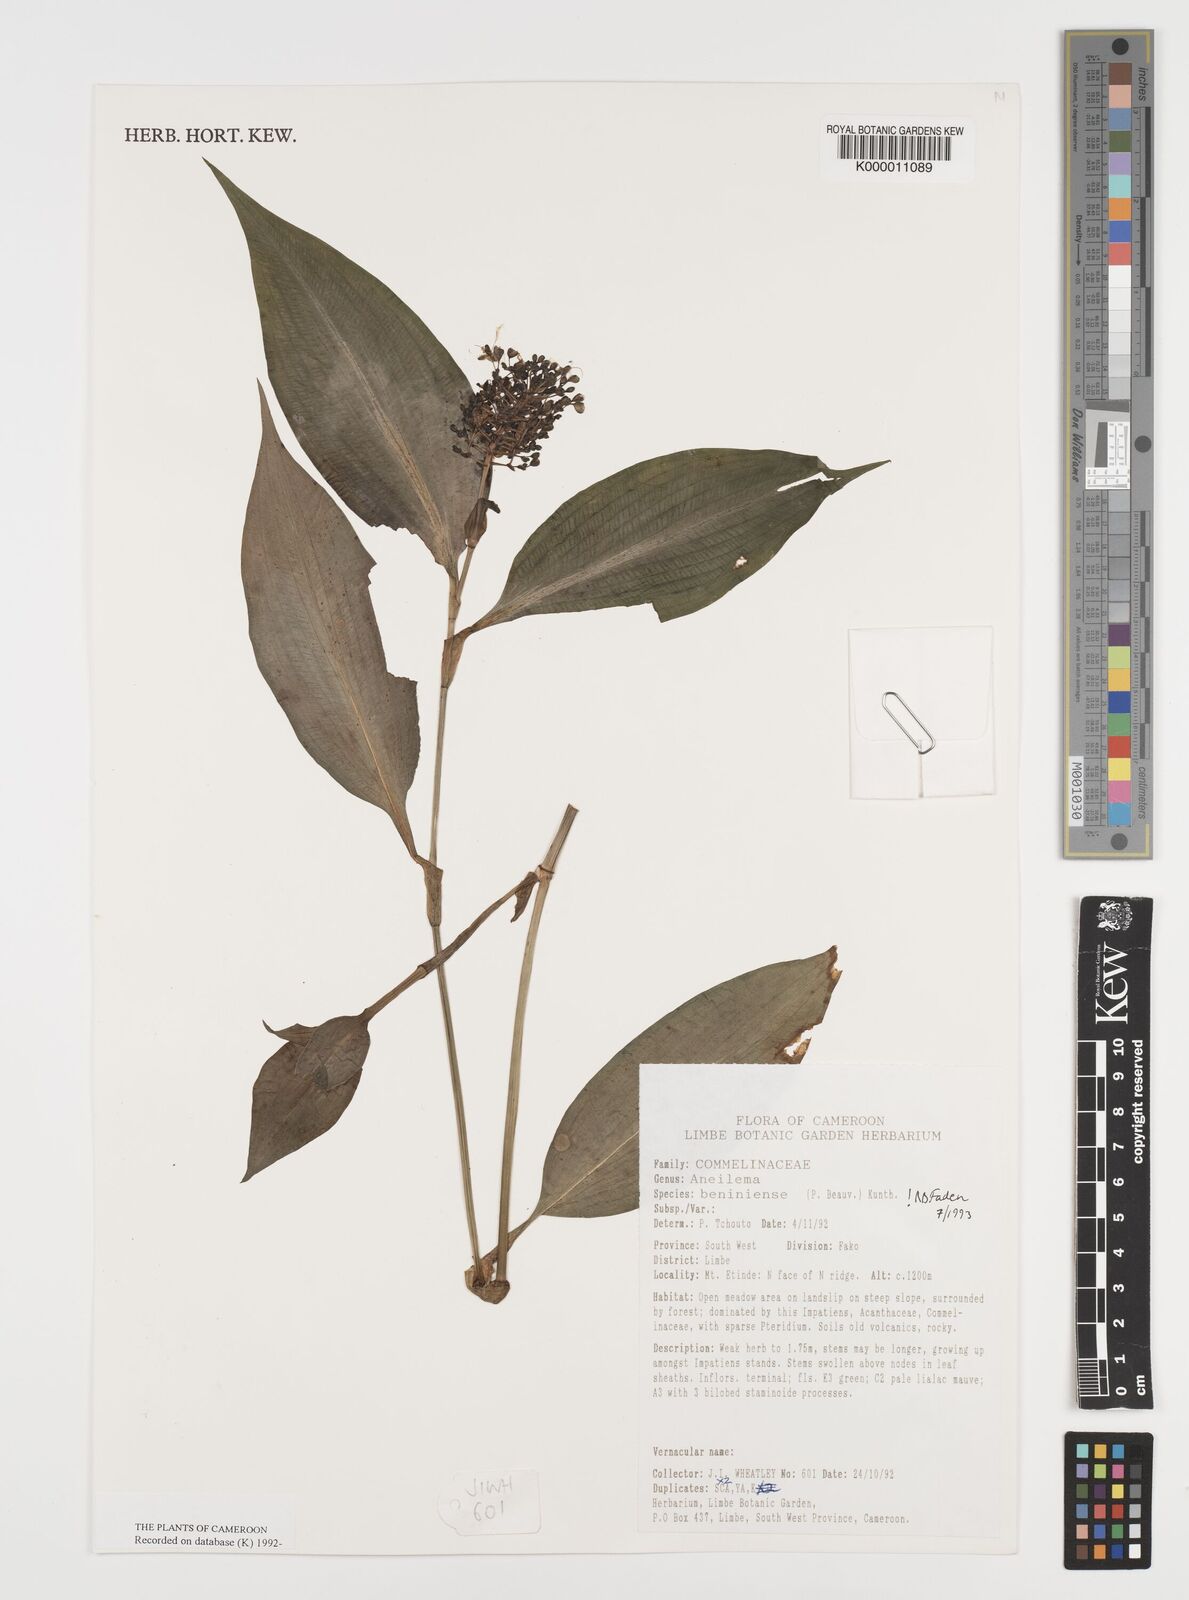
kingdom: Plantae
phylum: Tracheophyta
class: Liliopsida
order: Commelinales
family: Commelinaceae
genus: Aneilema
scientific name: Aneilema beniniense
